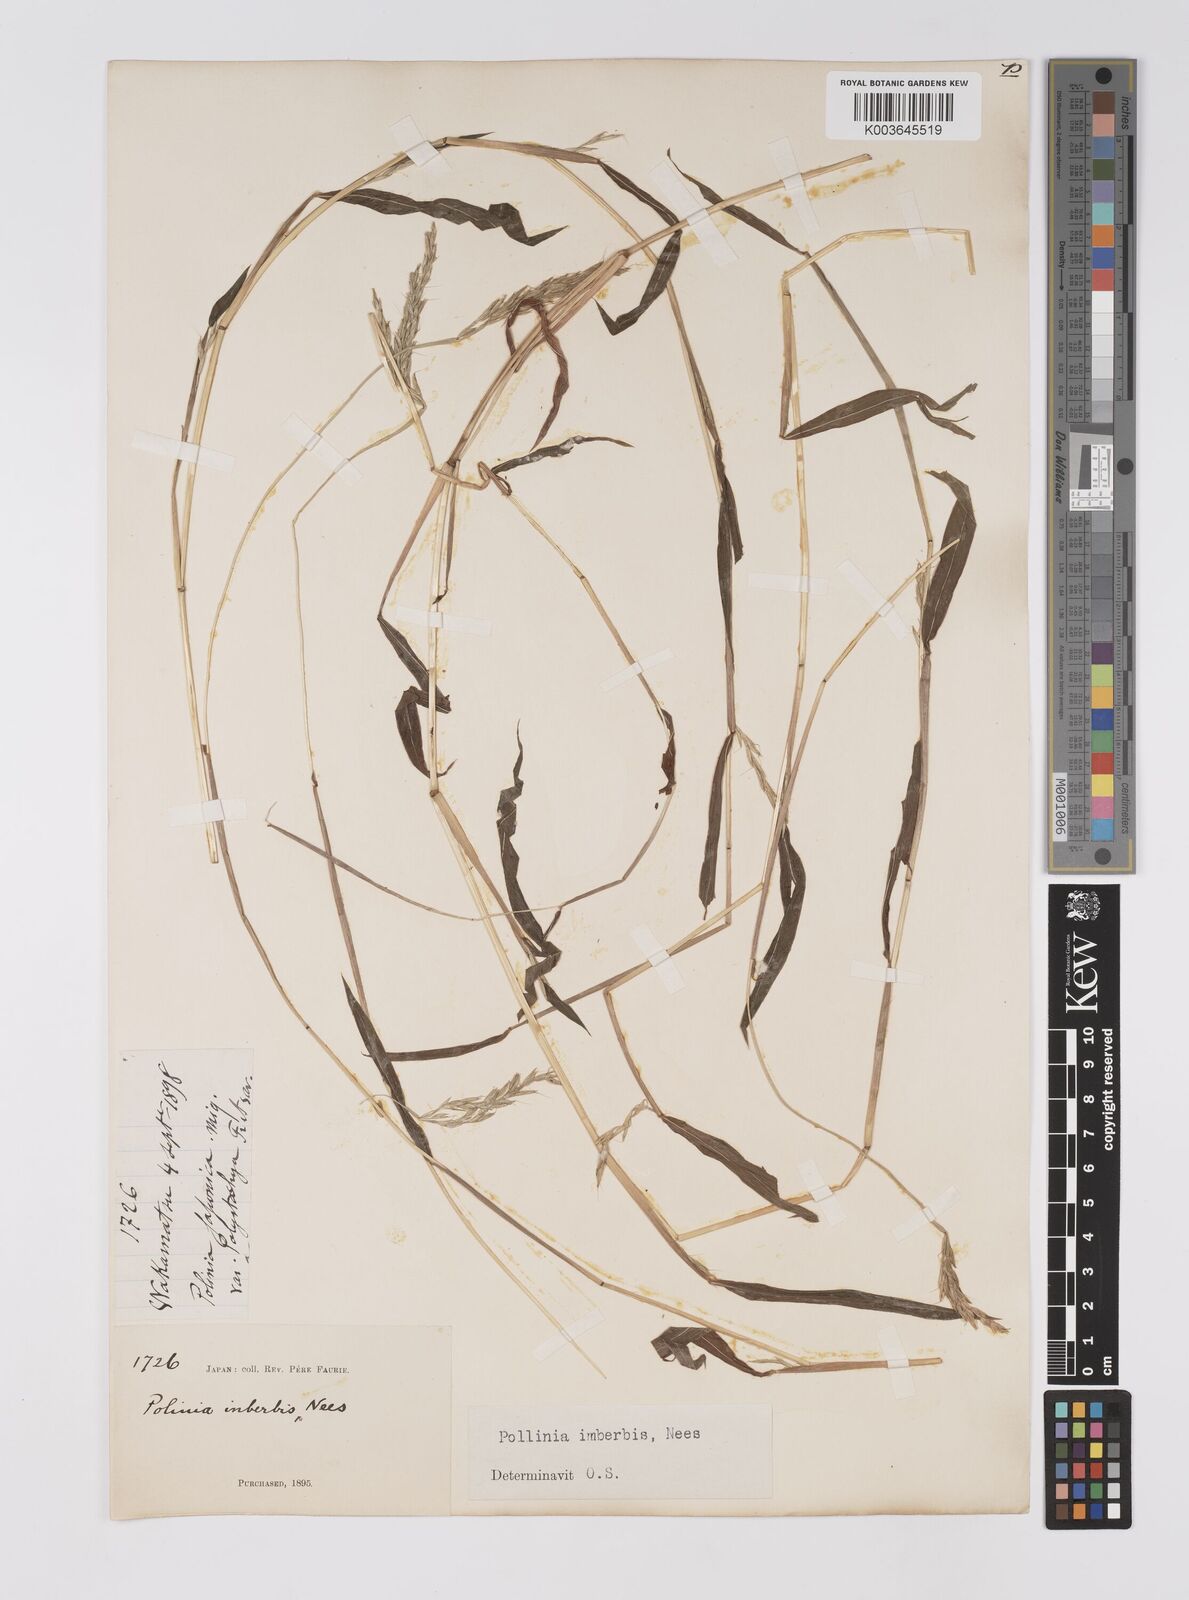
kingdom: Plantae
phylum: Tracheophyta
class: Liliopsida
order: Poales
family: Poaceae
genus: Microstegium
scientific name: Microstegium vimineum
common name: Japanese stiltgrass
